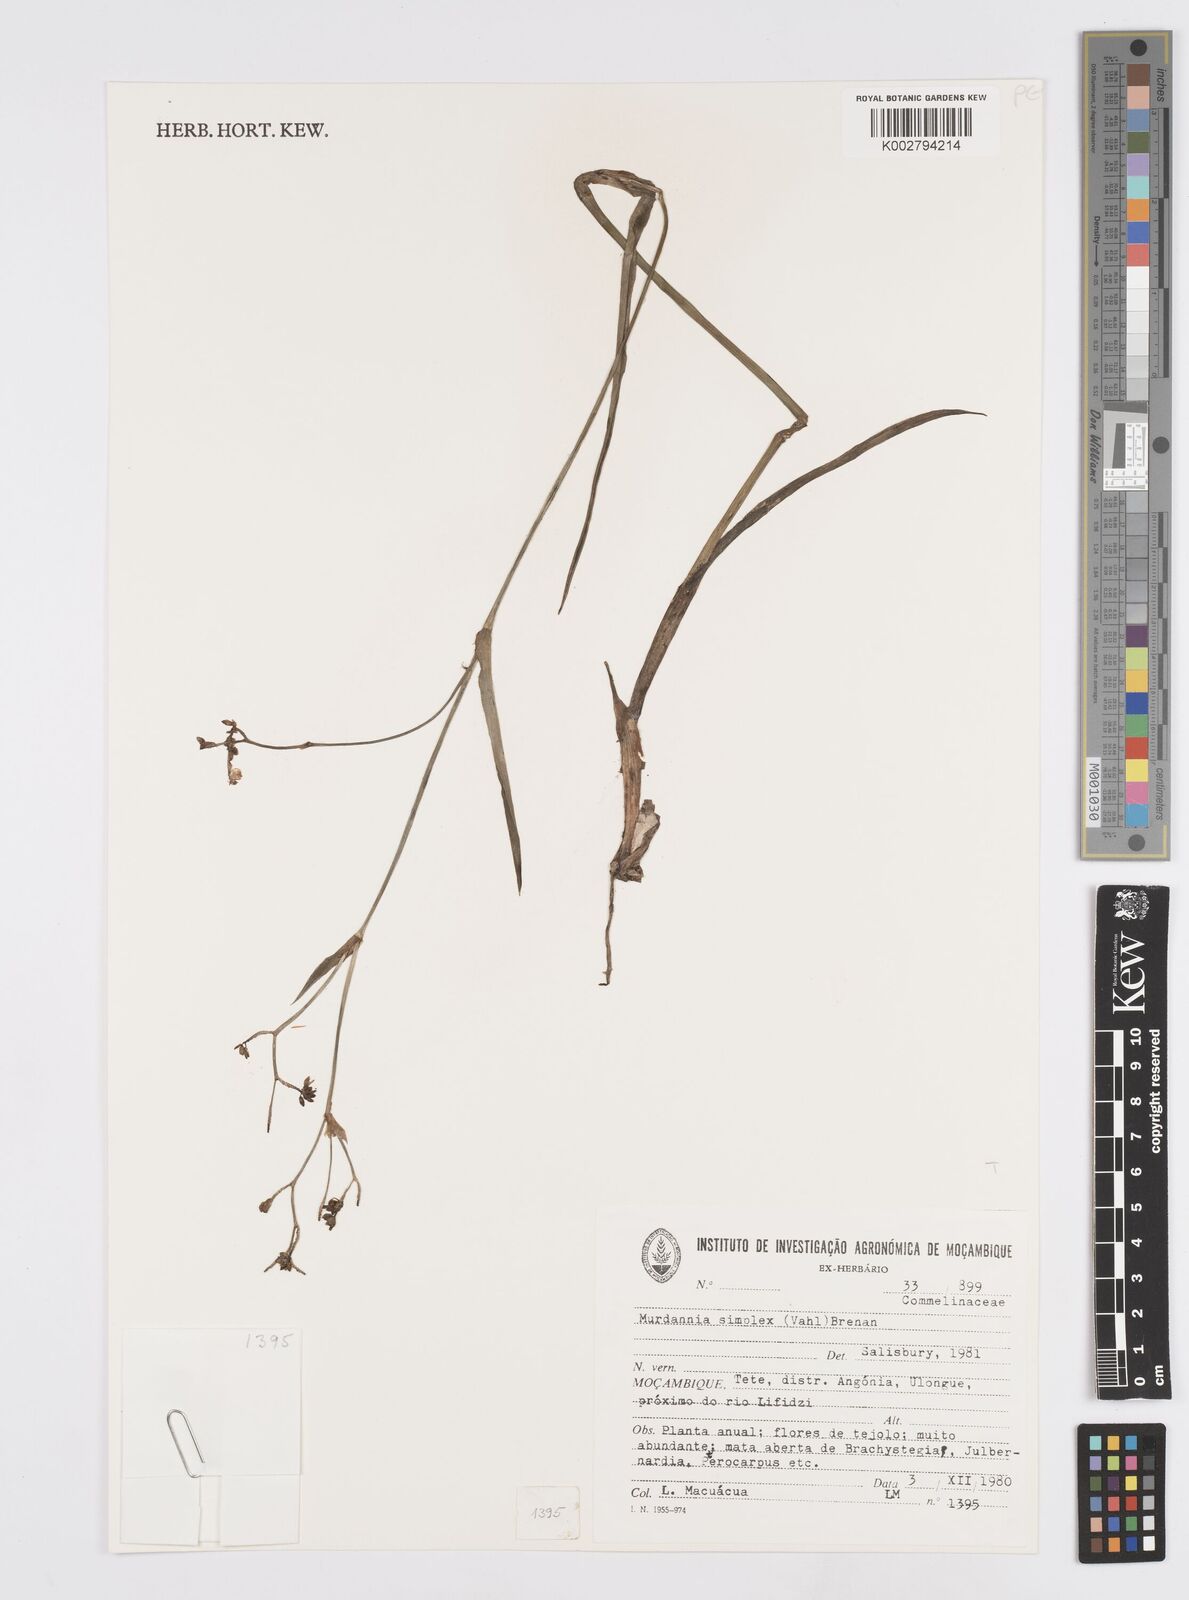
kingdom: Plantae
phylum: Tracheophyta
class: Liliopsida
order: Commelinales
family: Commelinaceae
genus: Murdannia
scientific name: Murdannia simplex
